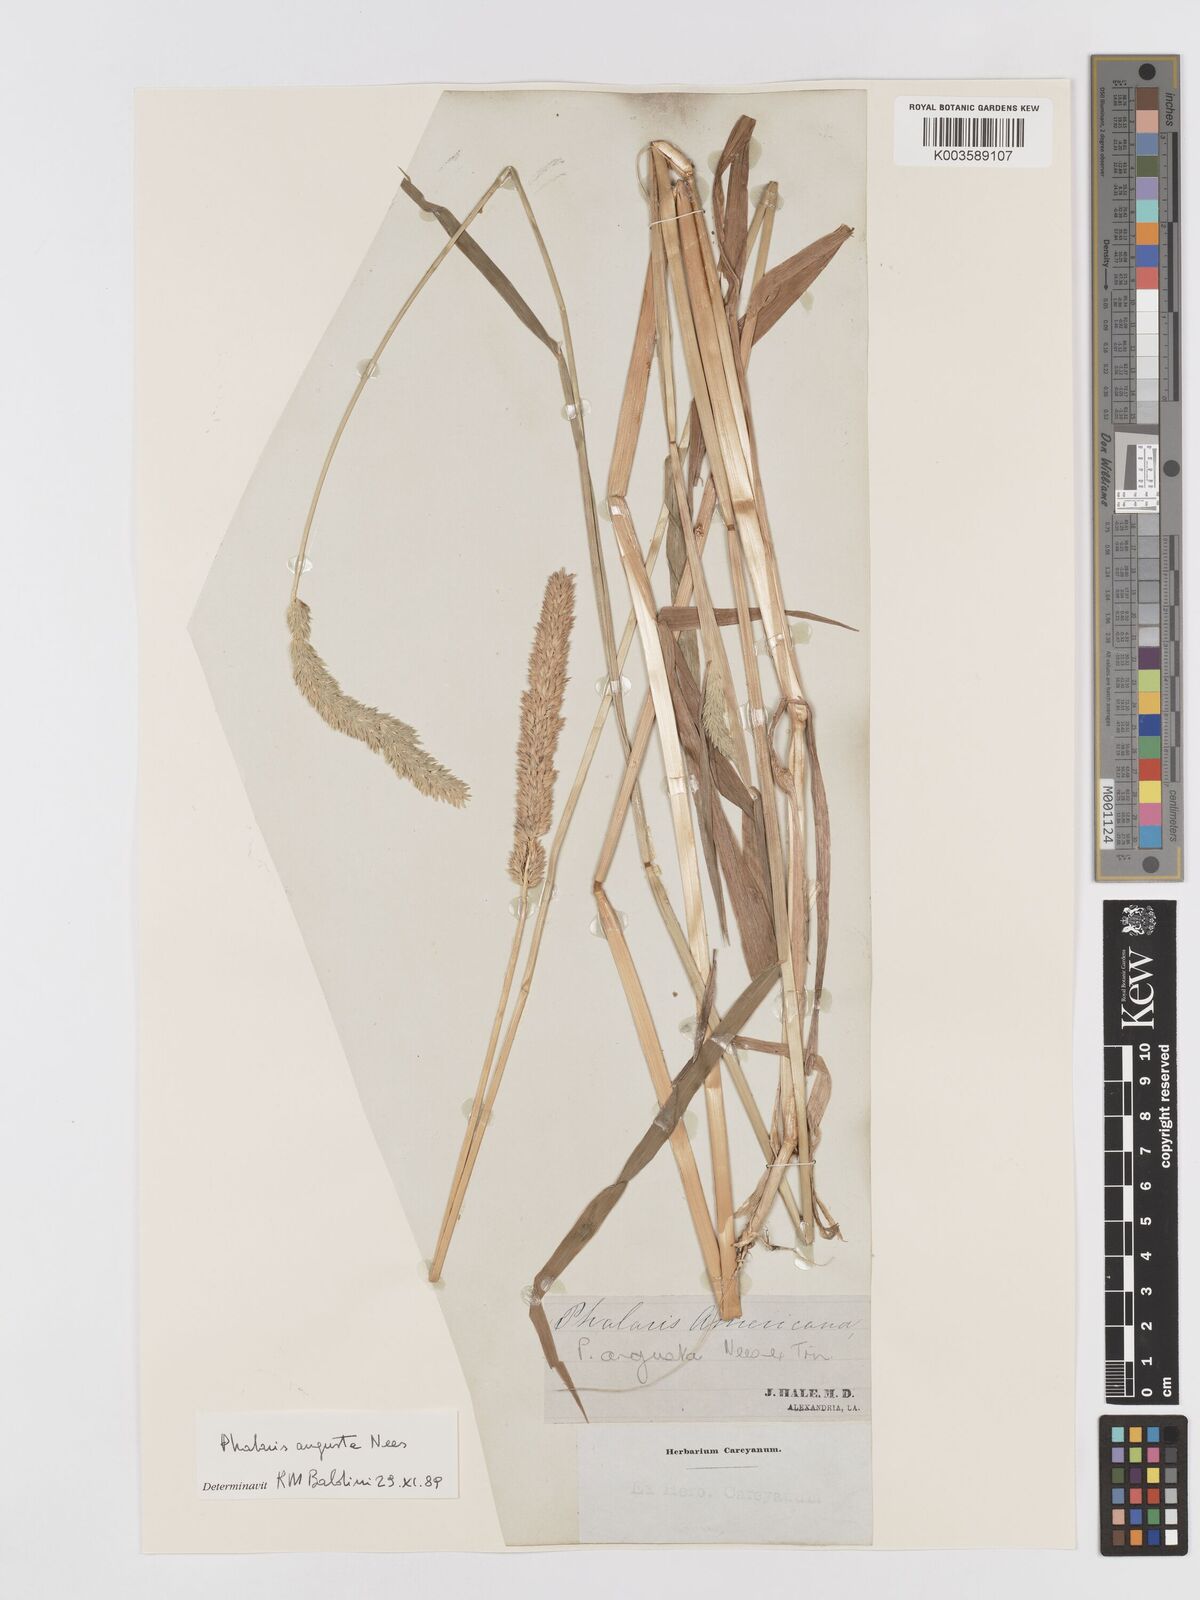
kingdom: Plantae
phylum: Tracheophyta
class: Liliopsida
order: Poales
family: Poaceae
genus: Phalaris
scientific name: Phalaris
